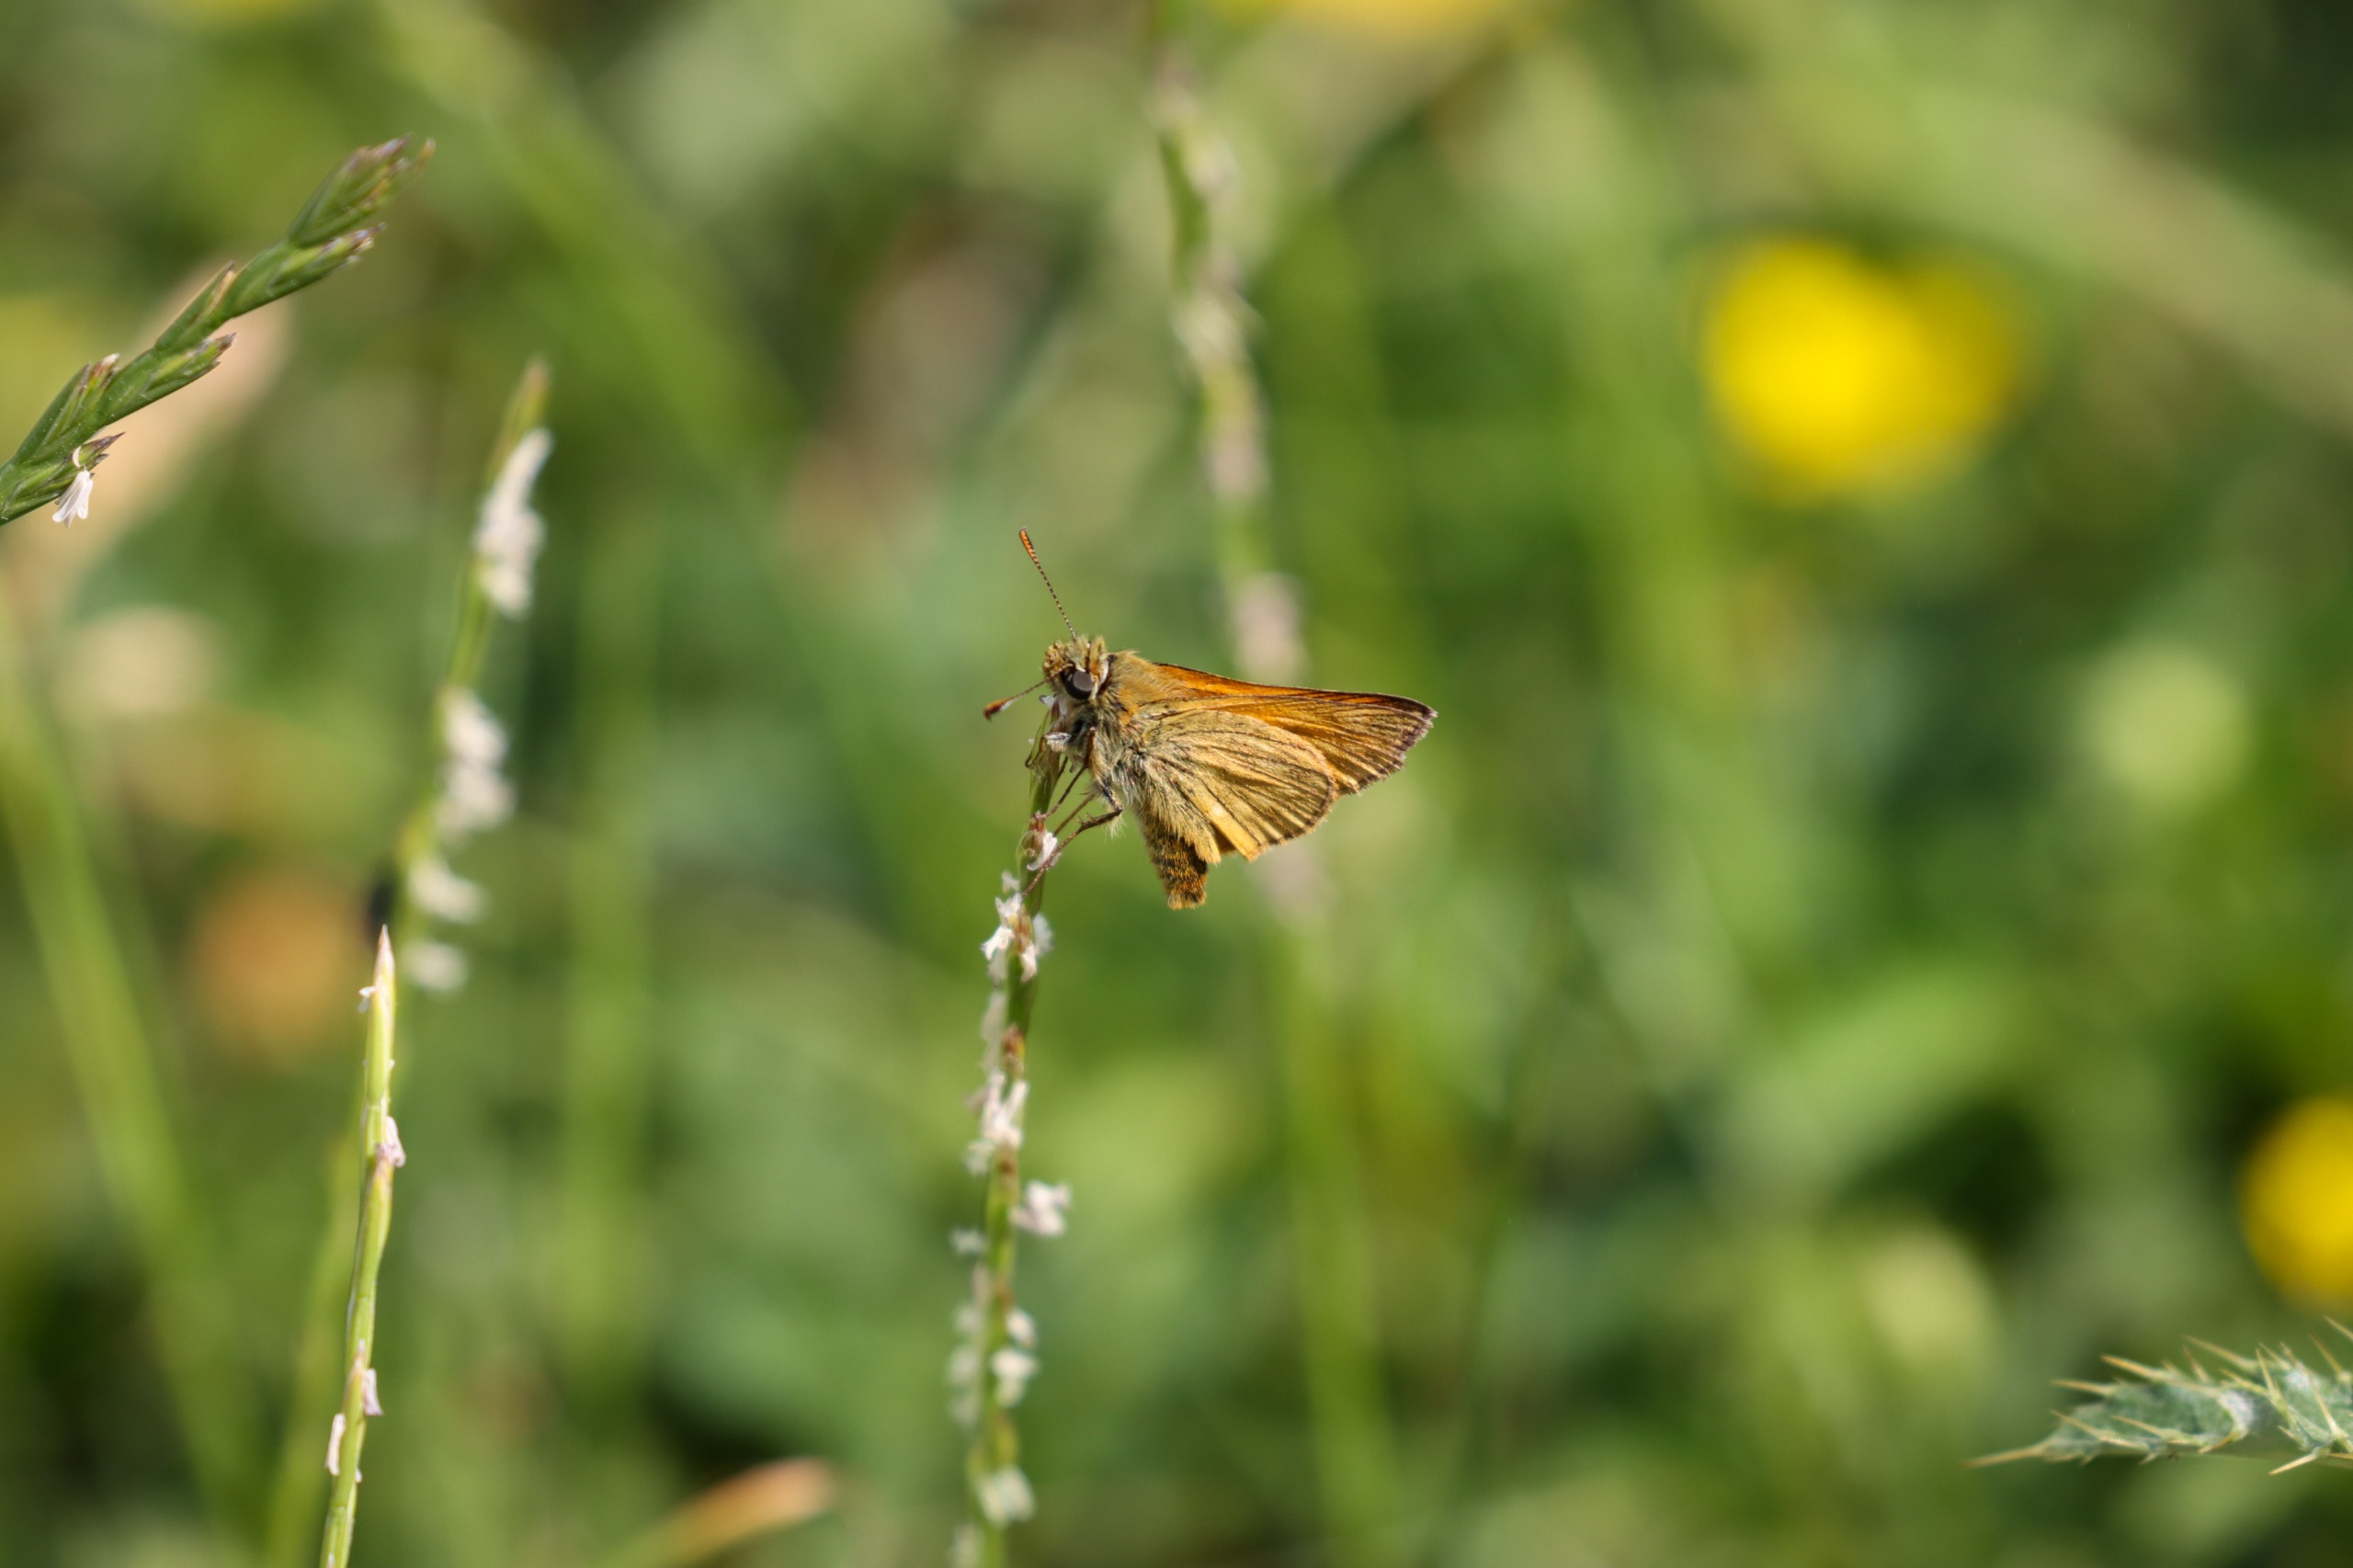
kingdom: Animalia
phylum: Arthropoda
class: Insecta
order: Lepidoptera
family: Hesperiidae
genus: Ochlodes
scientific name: Ochlodes venata
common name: Stor bredpande
